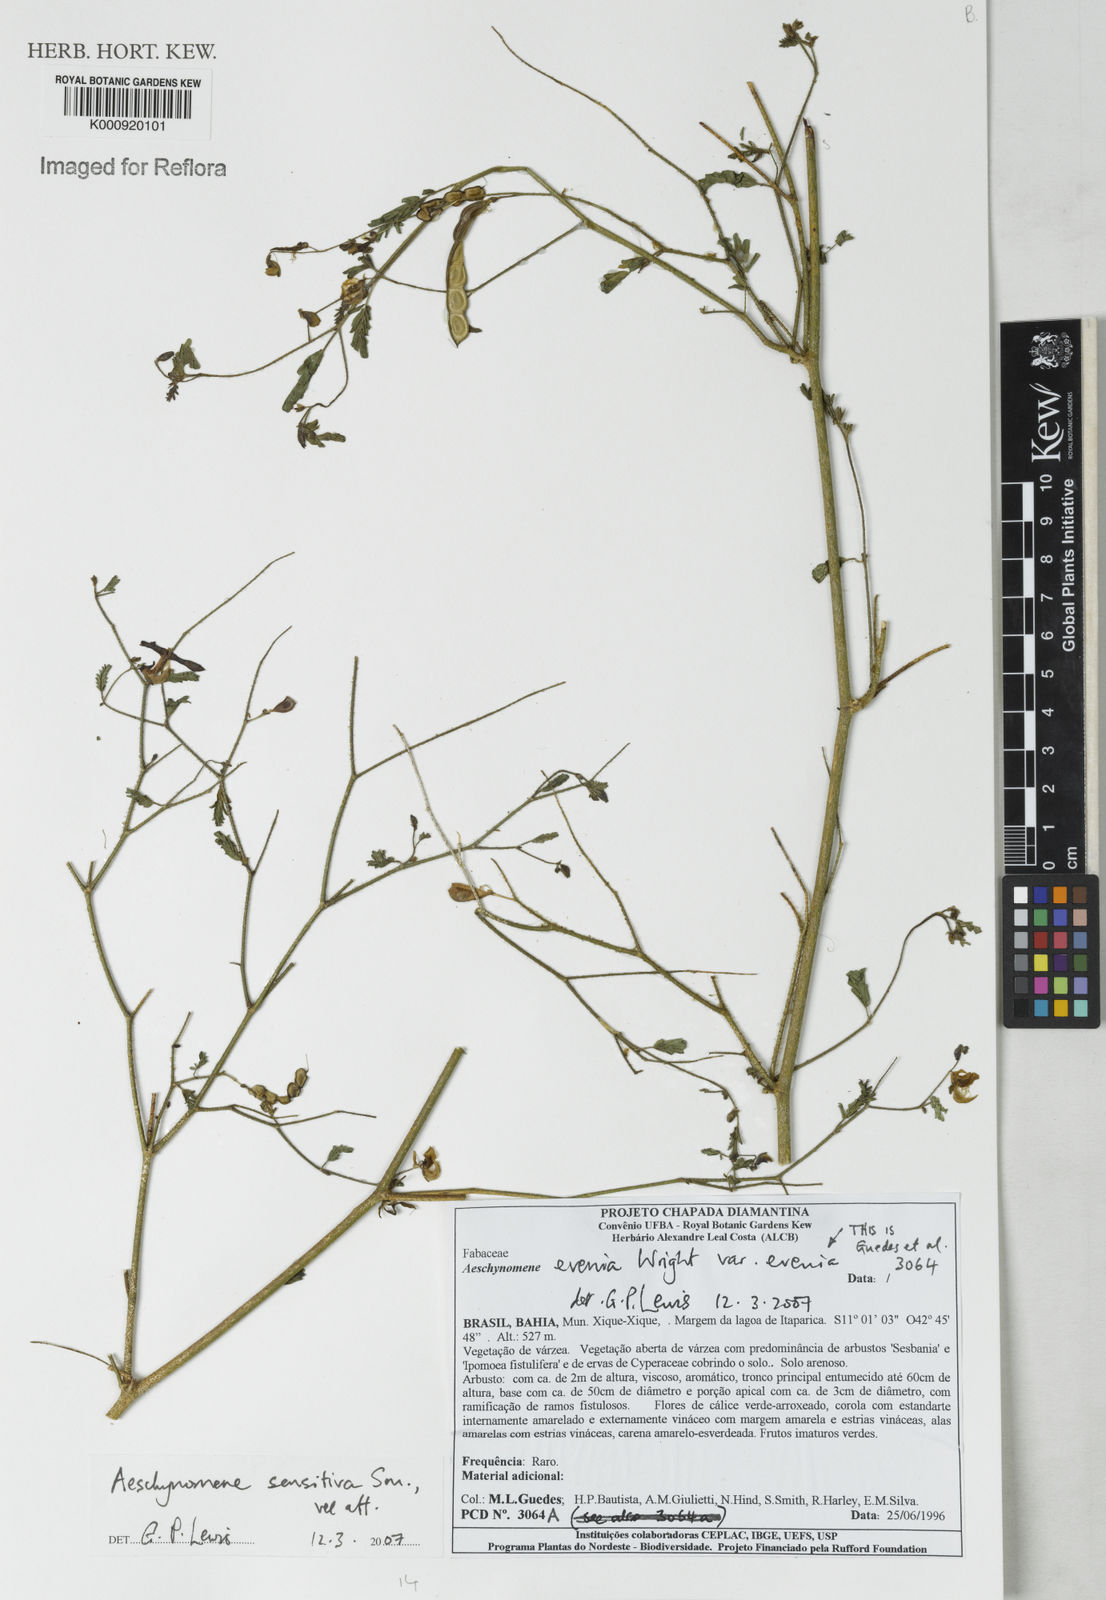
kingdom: Plantae
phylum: Tracheophyta
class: Magnoliopsida
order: Fabales
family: Fabaceae
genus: Aeschynomene
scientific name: Aeschynomene sensitiva
